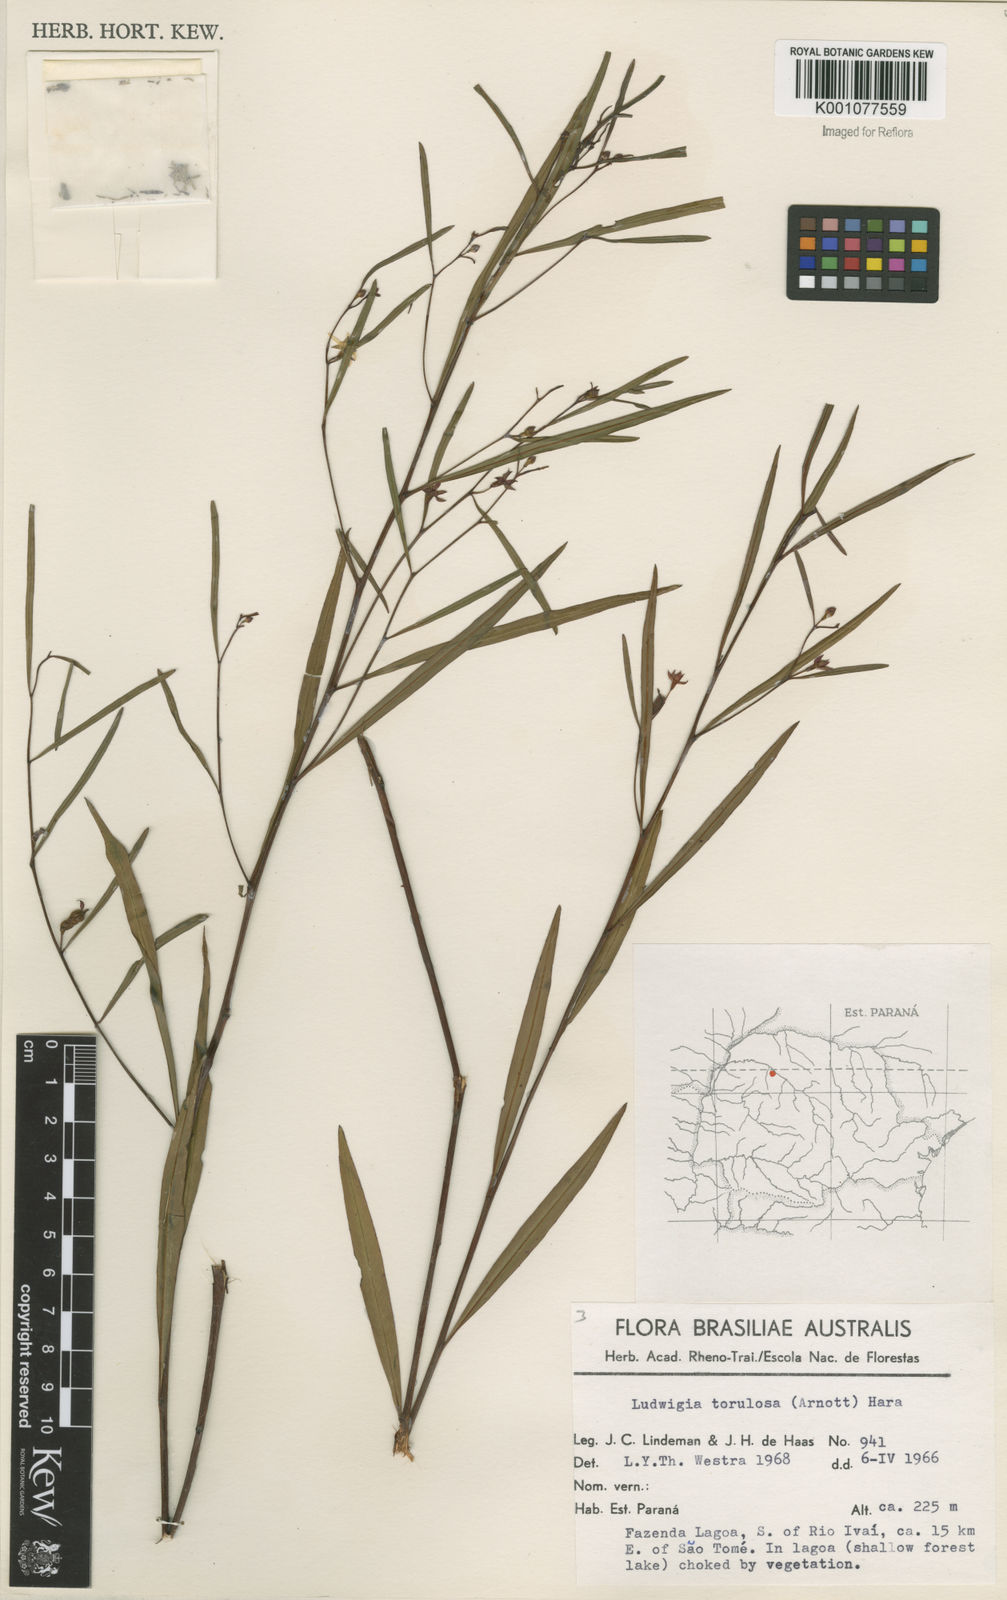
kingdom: Plantae
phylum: Tracheophyta
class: Magnoliopsida
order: Myrtales
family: Onagraceae
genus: Ludwigia
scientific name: Ludwigia torulosa
